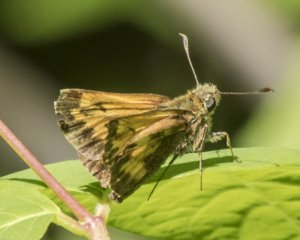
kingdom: Animalia
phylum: Arthropoda
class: Insecta
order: Lepidoptera
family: Hesperiidae
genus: Lon
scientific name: Lon hobomok
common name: Hobomok Skipper
